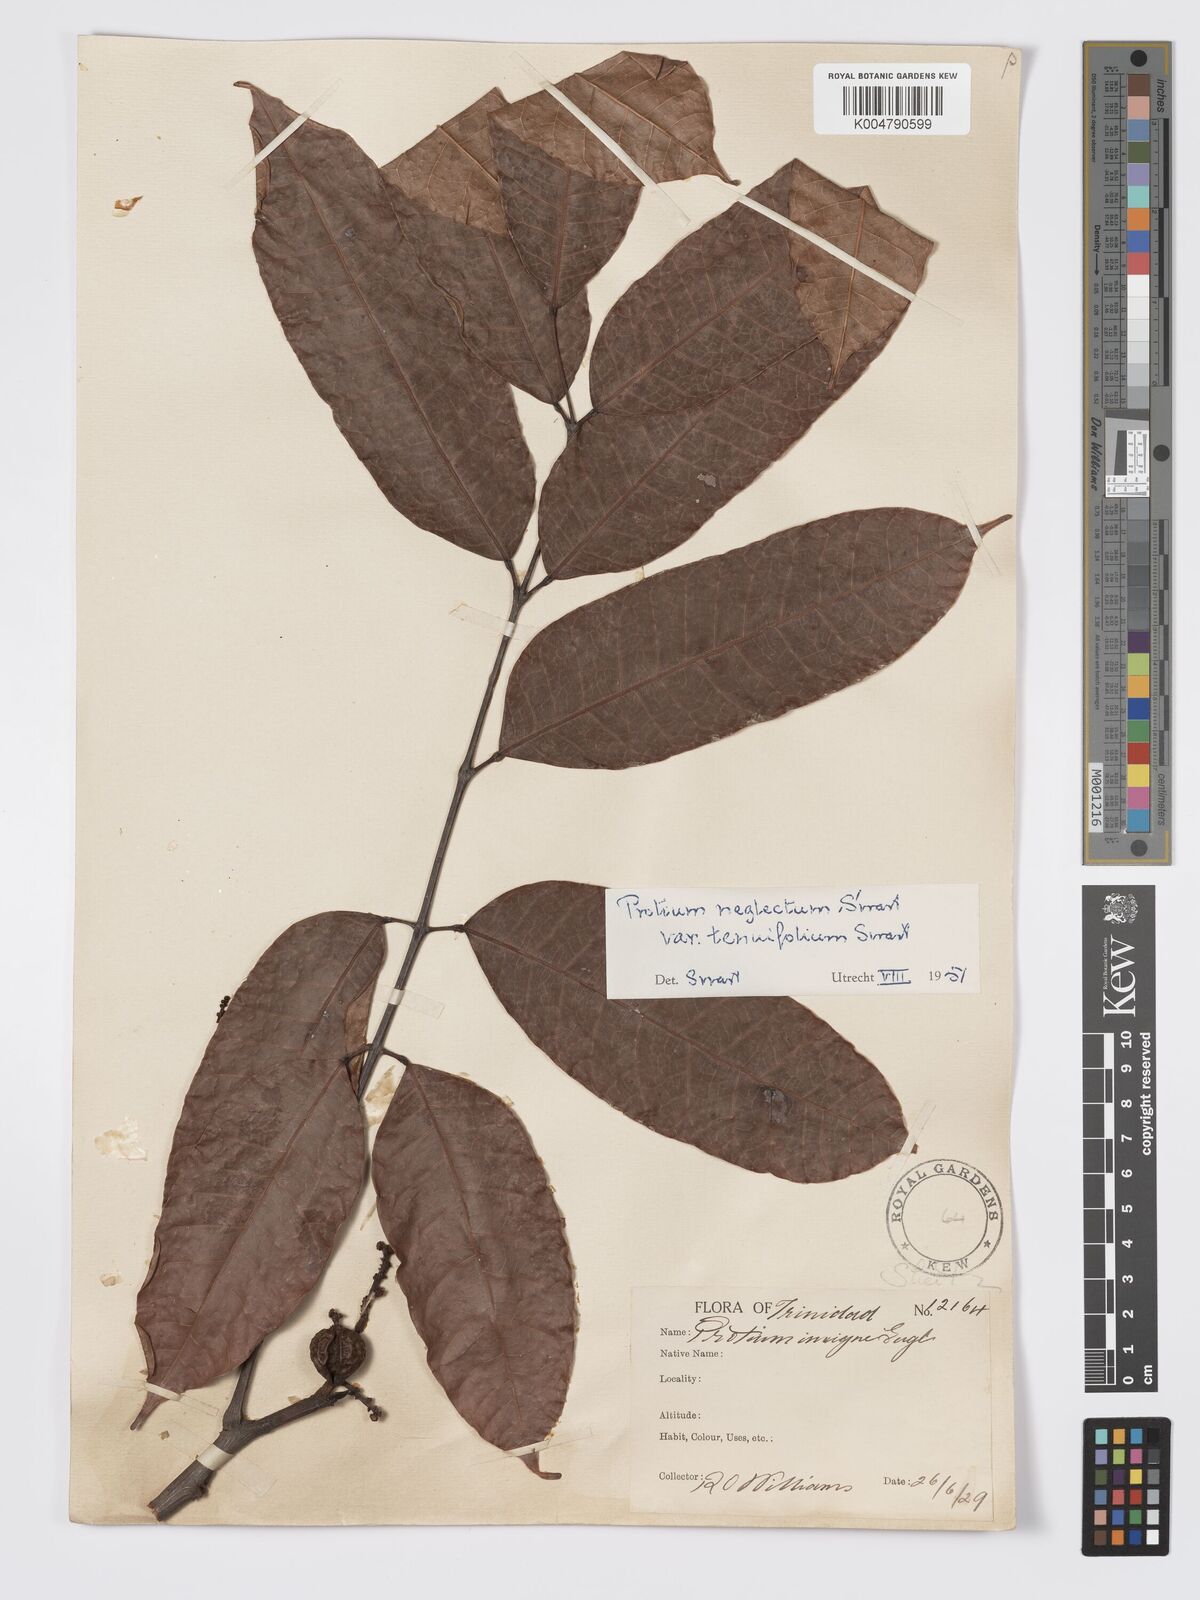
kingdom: Plantae
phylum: Tracheophyta
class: Magnoliopsida
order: Sapindales
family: Burseraceae
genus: Protium
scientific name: Protium herbertii
